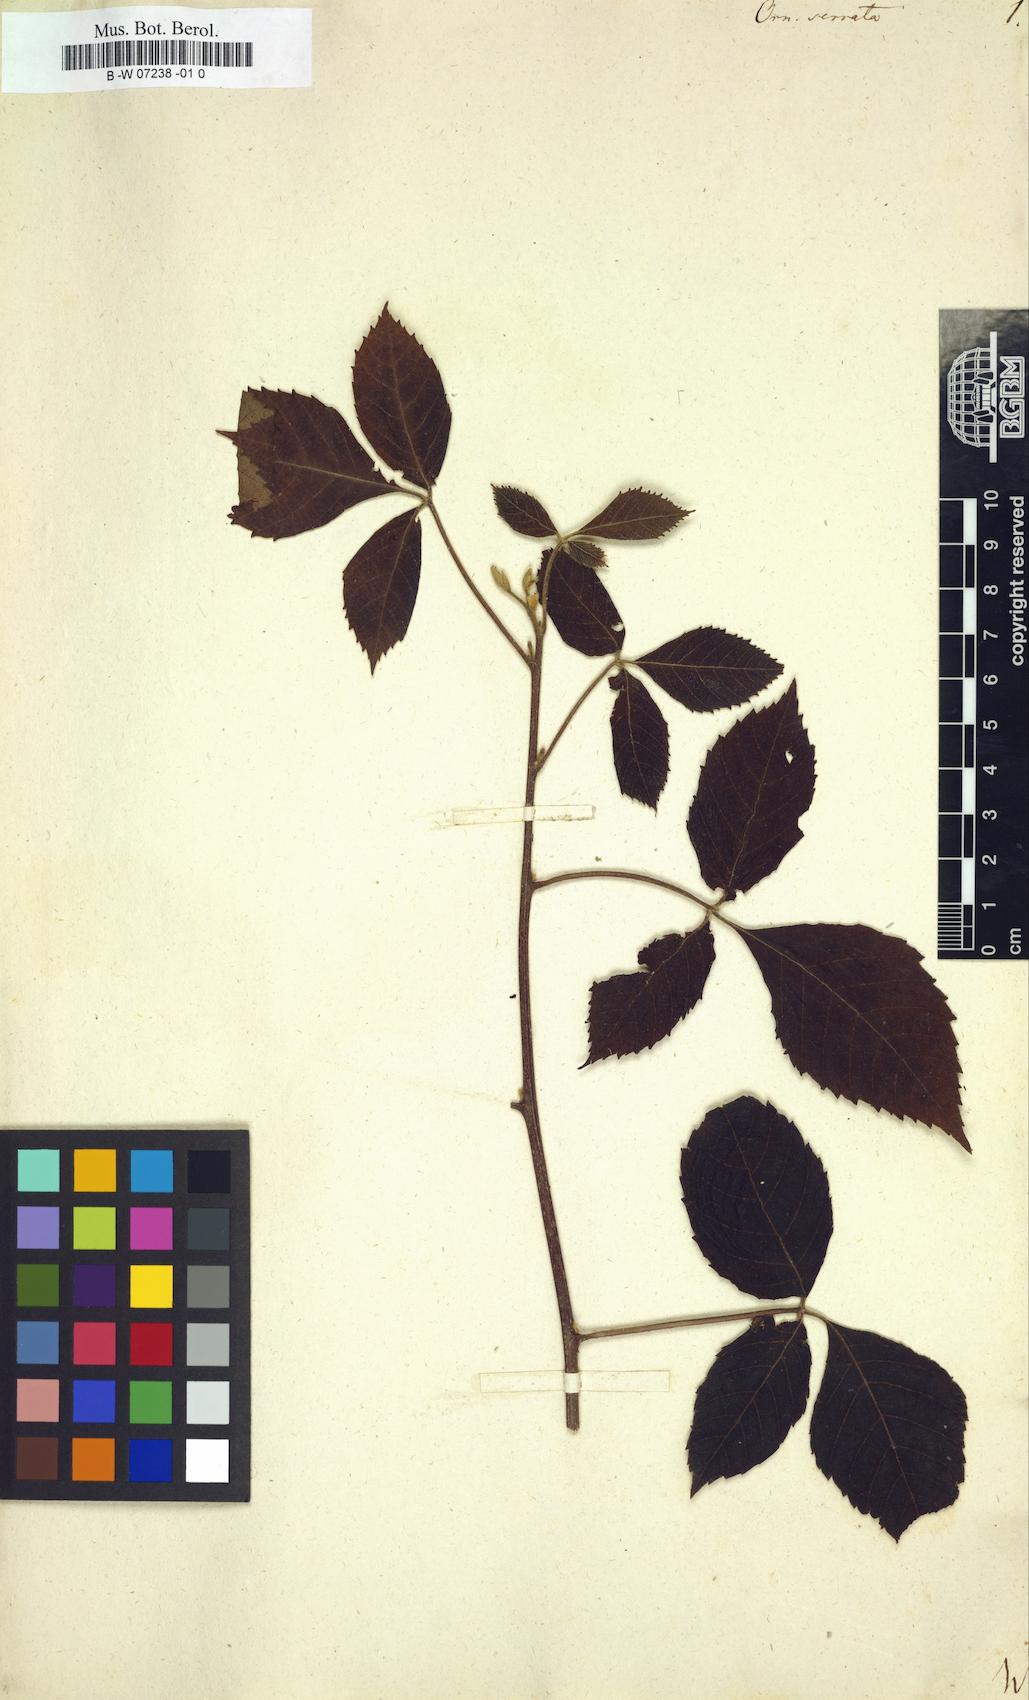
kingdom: Plantae
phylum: Tracheophyta
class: Magnoliopsida
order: Sapindales
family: Sapindaceae
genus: Allophylus
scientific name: Allophylus serratus
